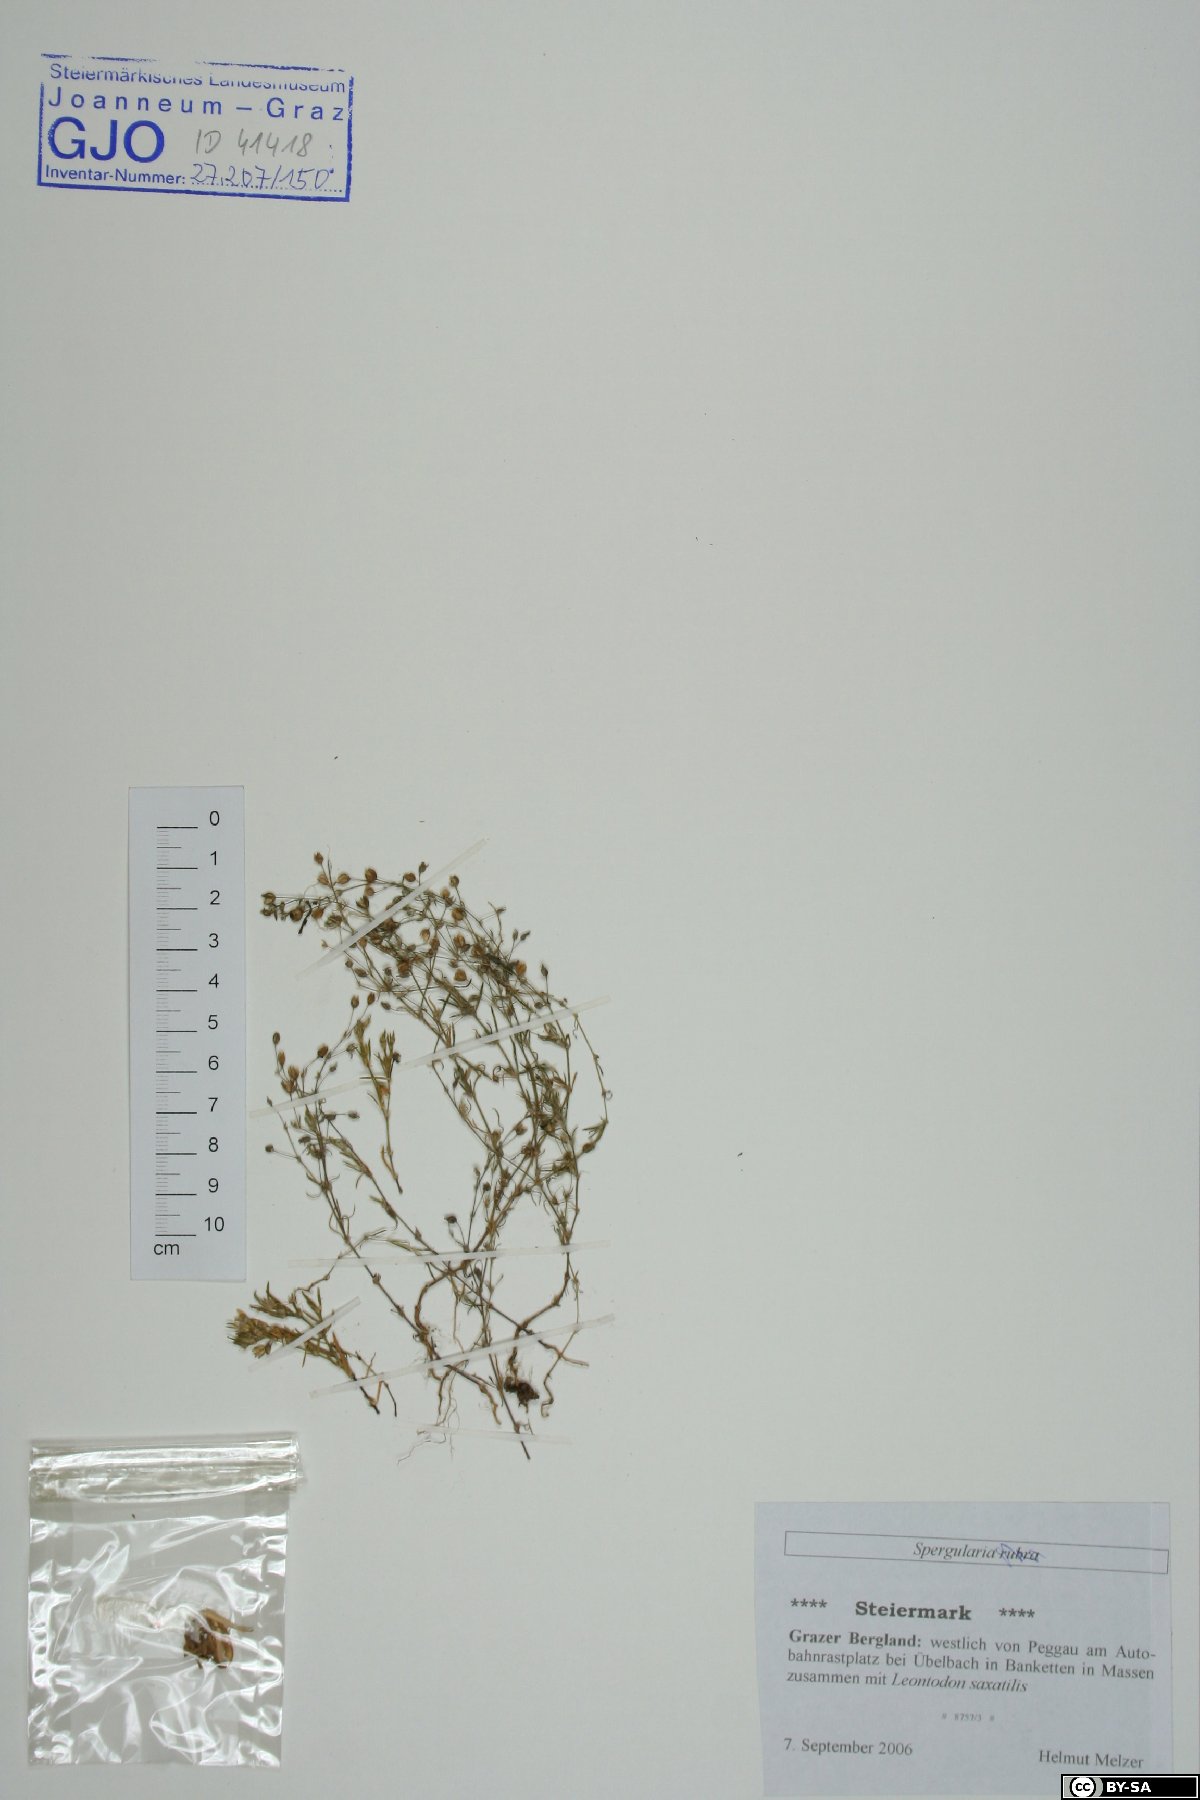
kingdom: Plantae
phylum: Tracheophyta
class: Magnoliopsida
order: Caryophyllales
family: Caryophyllaceae
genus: Spergularia
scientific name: Spergularia rubra
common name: Red sand-spurrey
